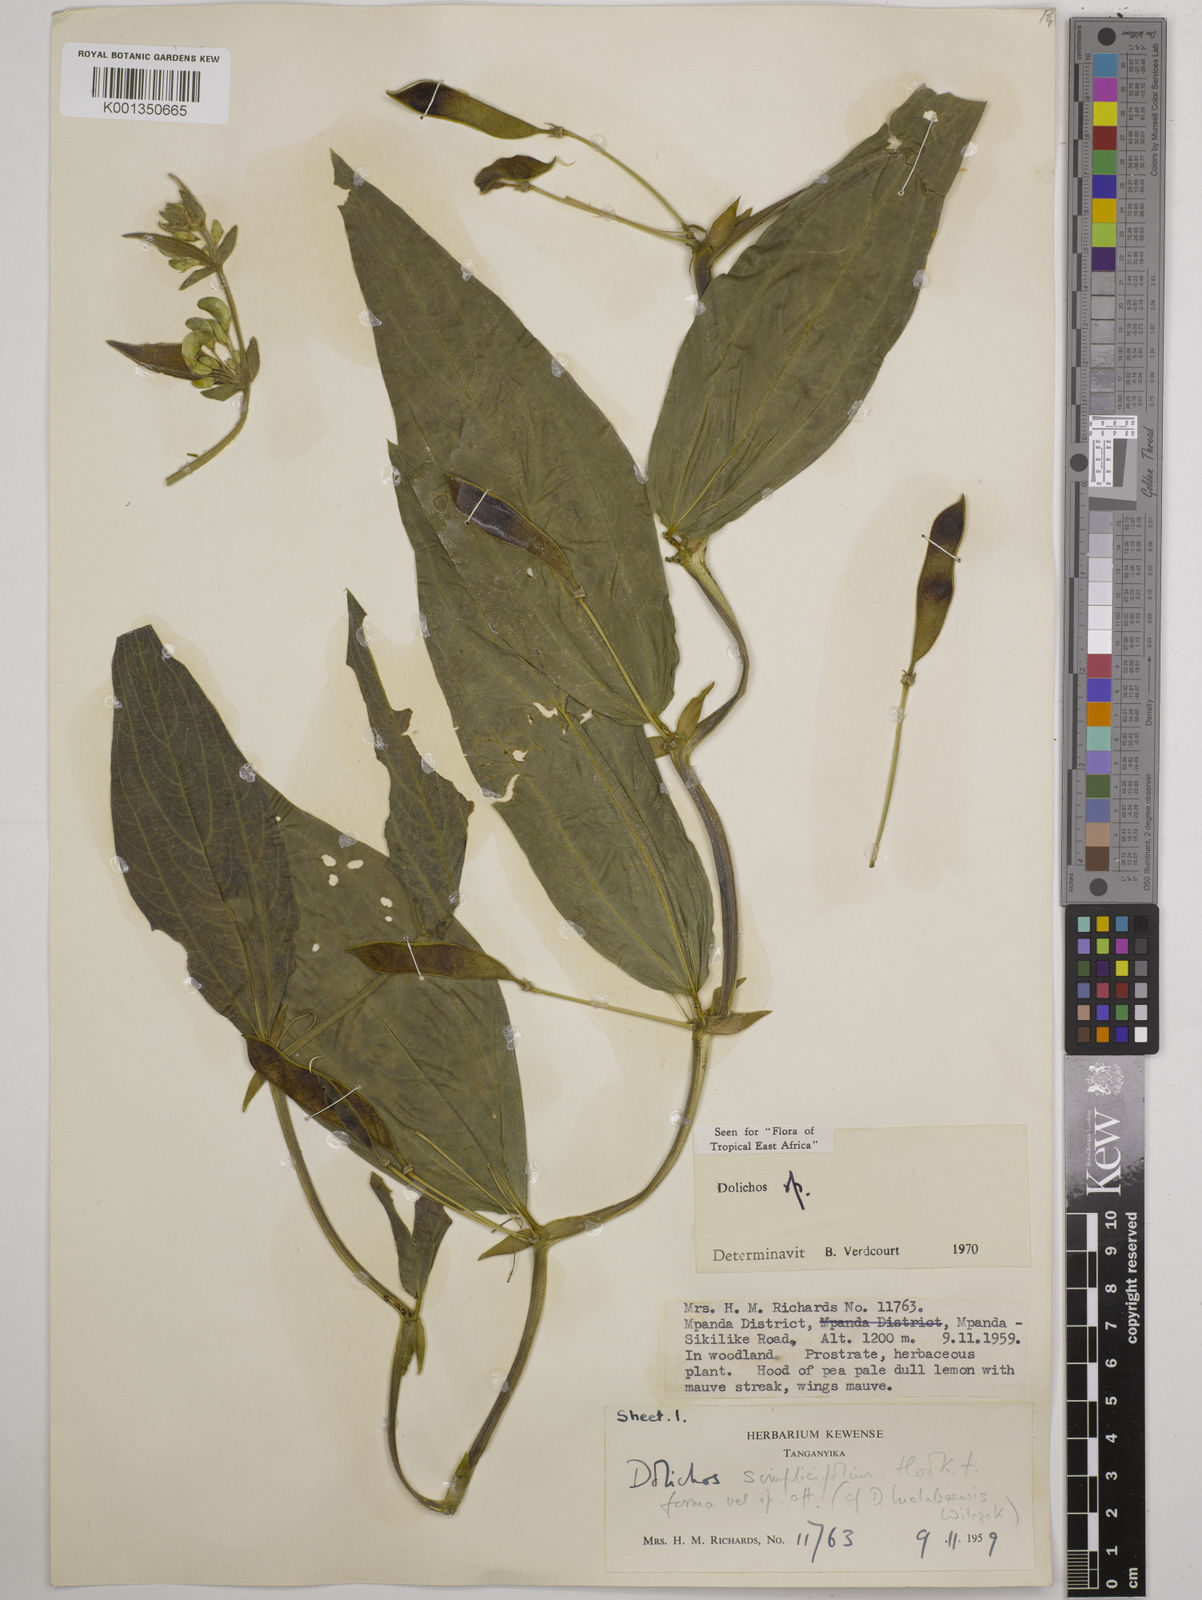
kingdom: Plantae
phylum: Tracheophyta
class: Magnoliopsida
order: Fabales
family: Fabaceae
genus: Dolichos
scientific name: Dolichos simplicifolius
